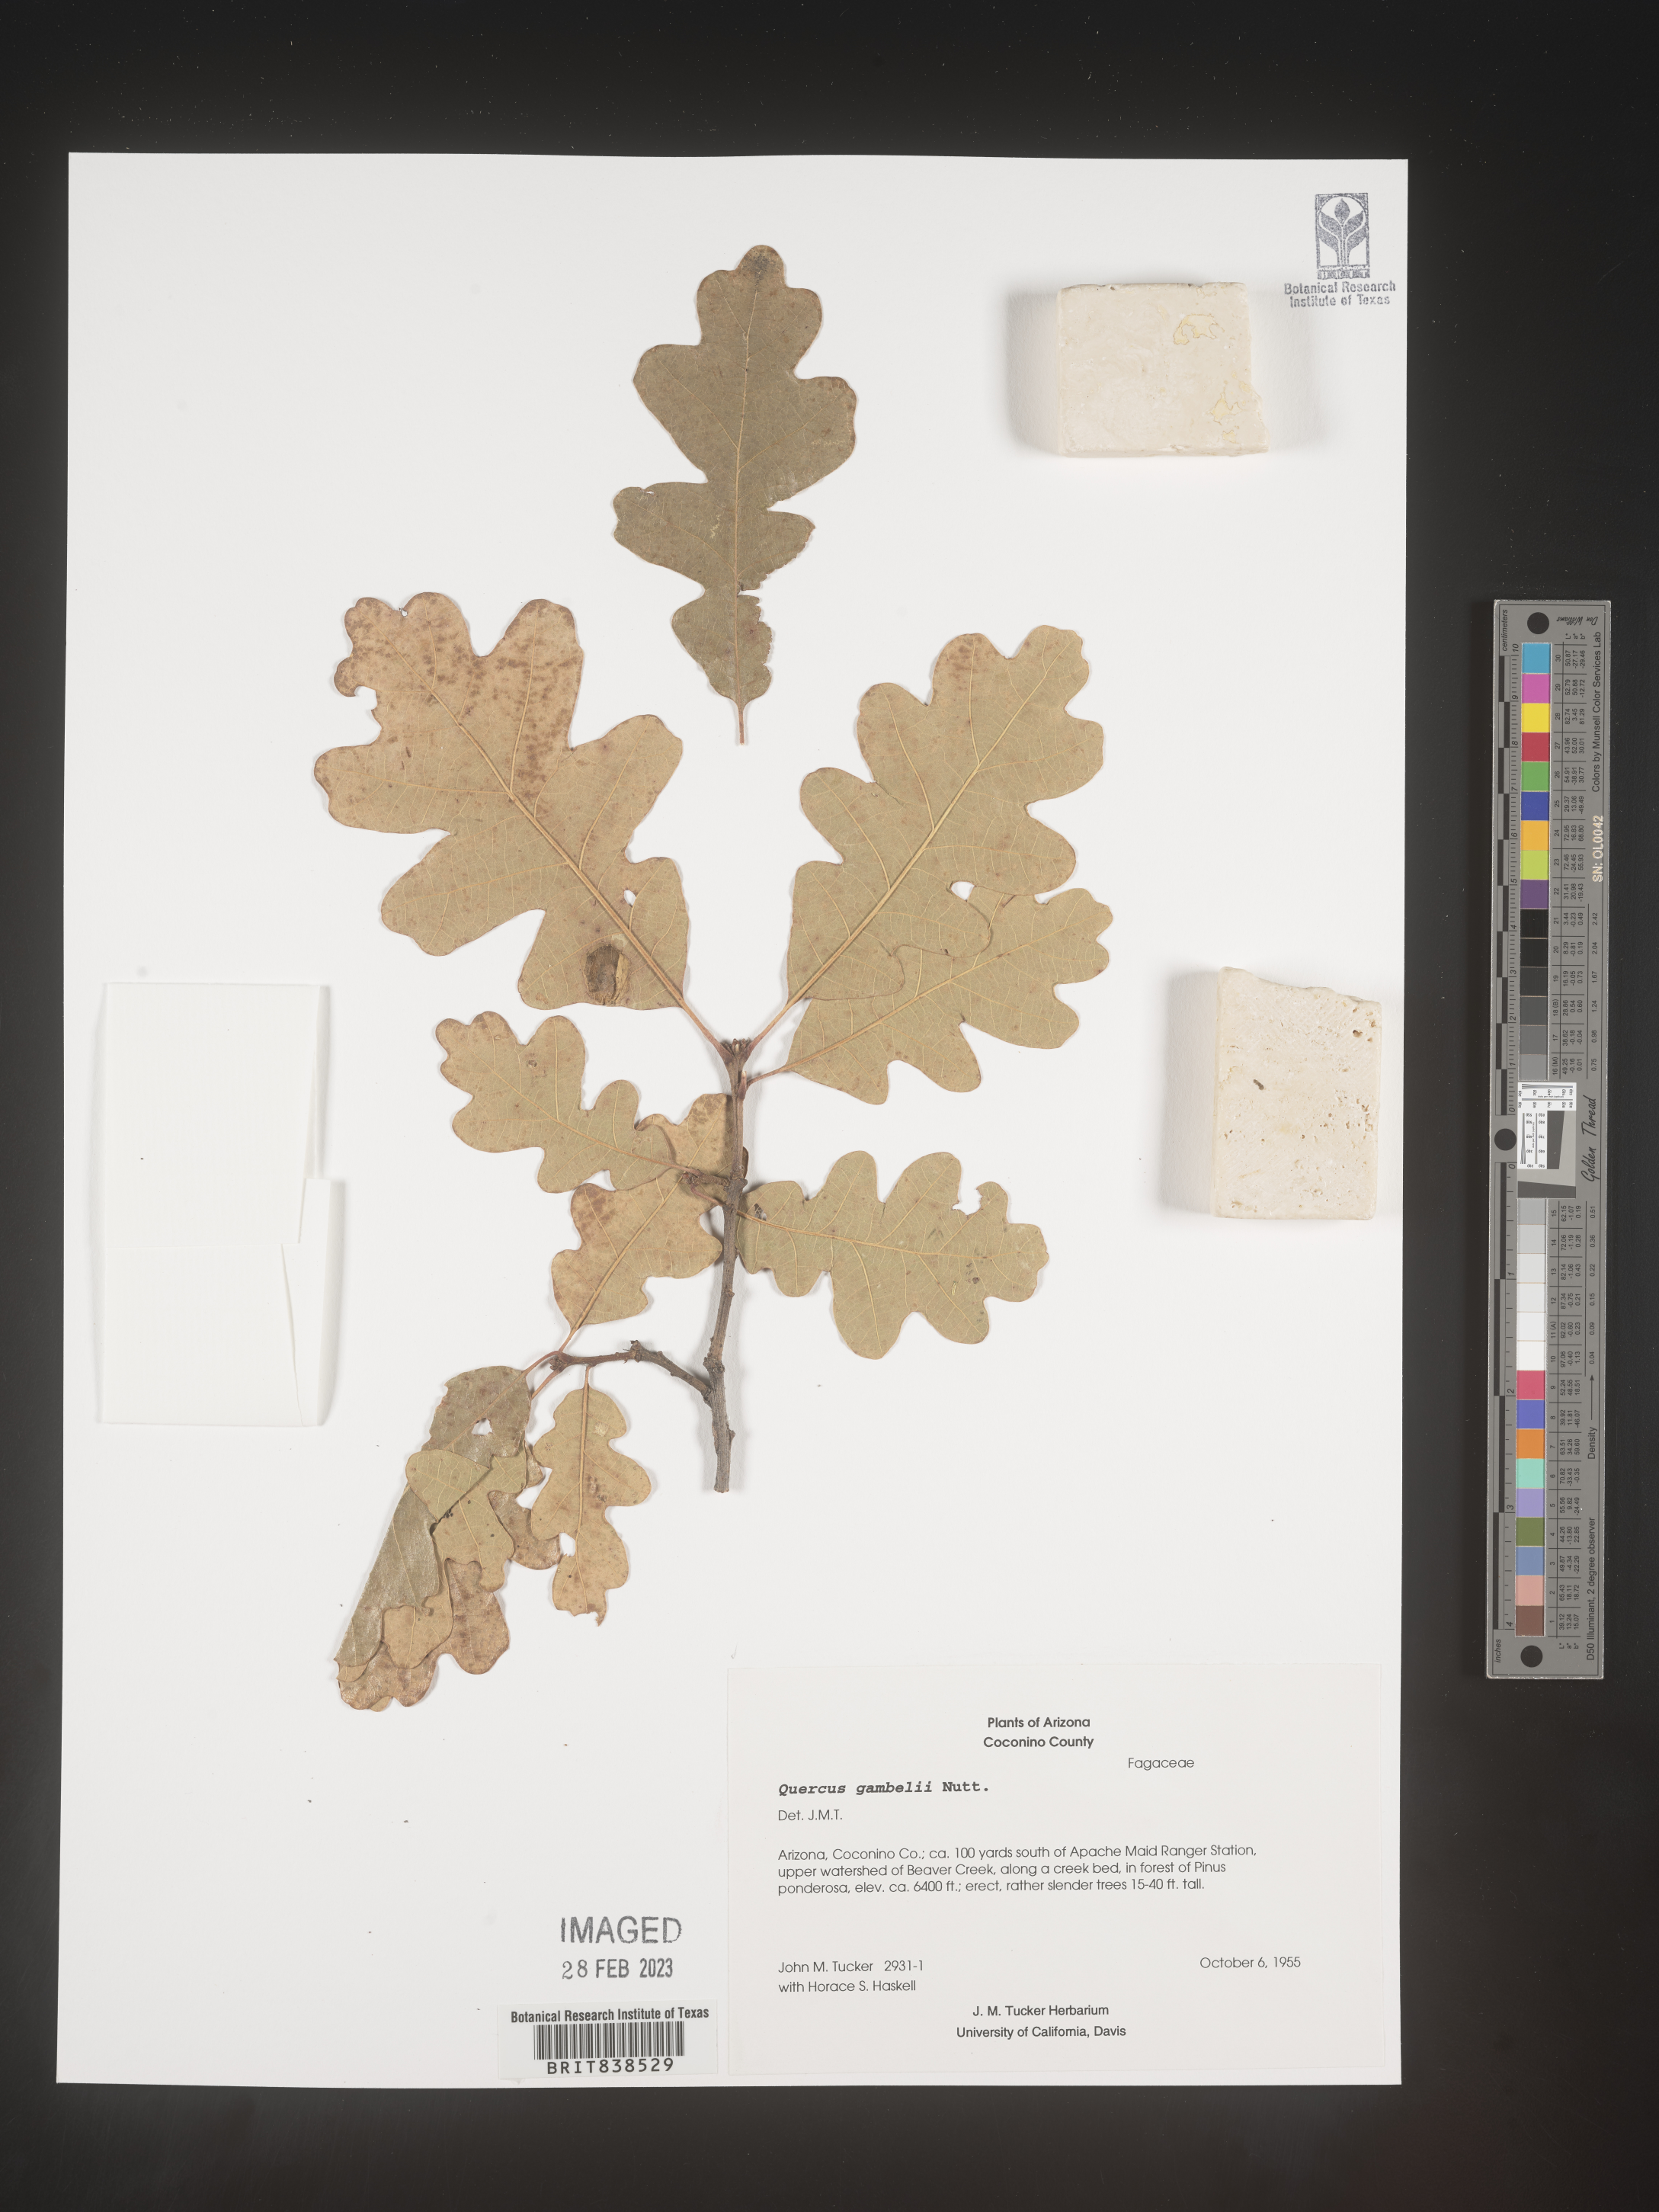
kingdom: Plantae
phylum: Tracheophyta
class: Magnoliopsida
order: Fagales
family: Fagaceae
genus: Quercus
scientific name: Quercus gambelii
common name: Gambel oak
